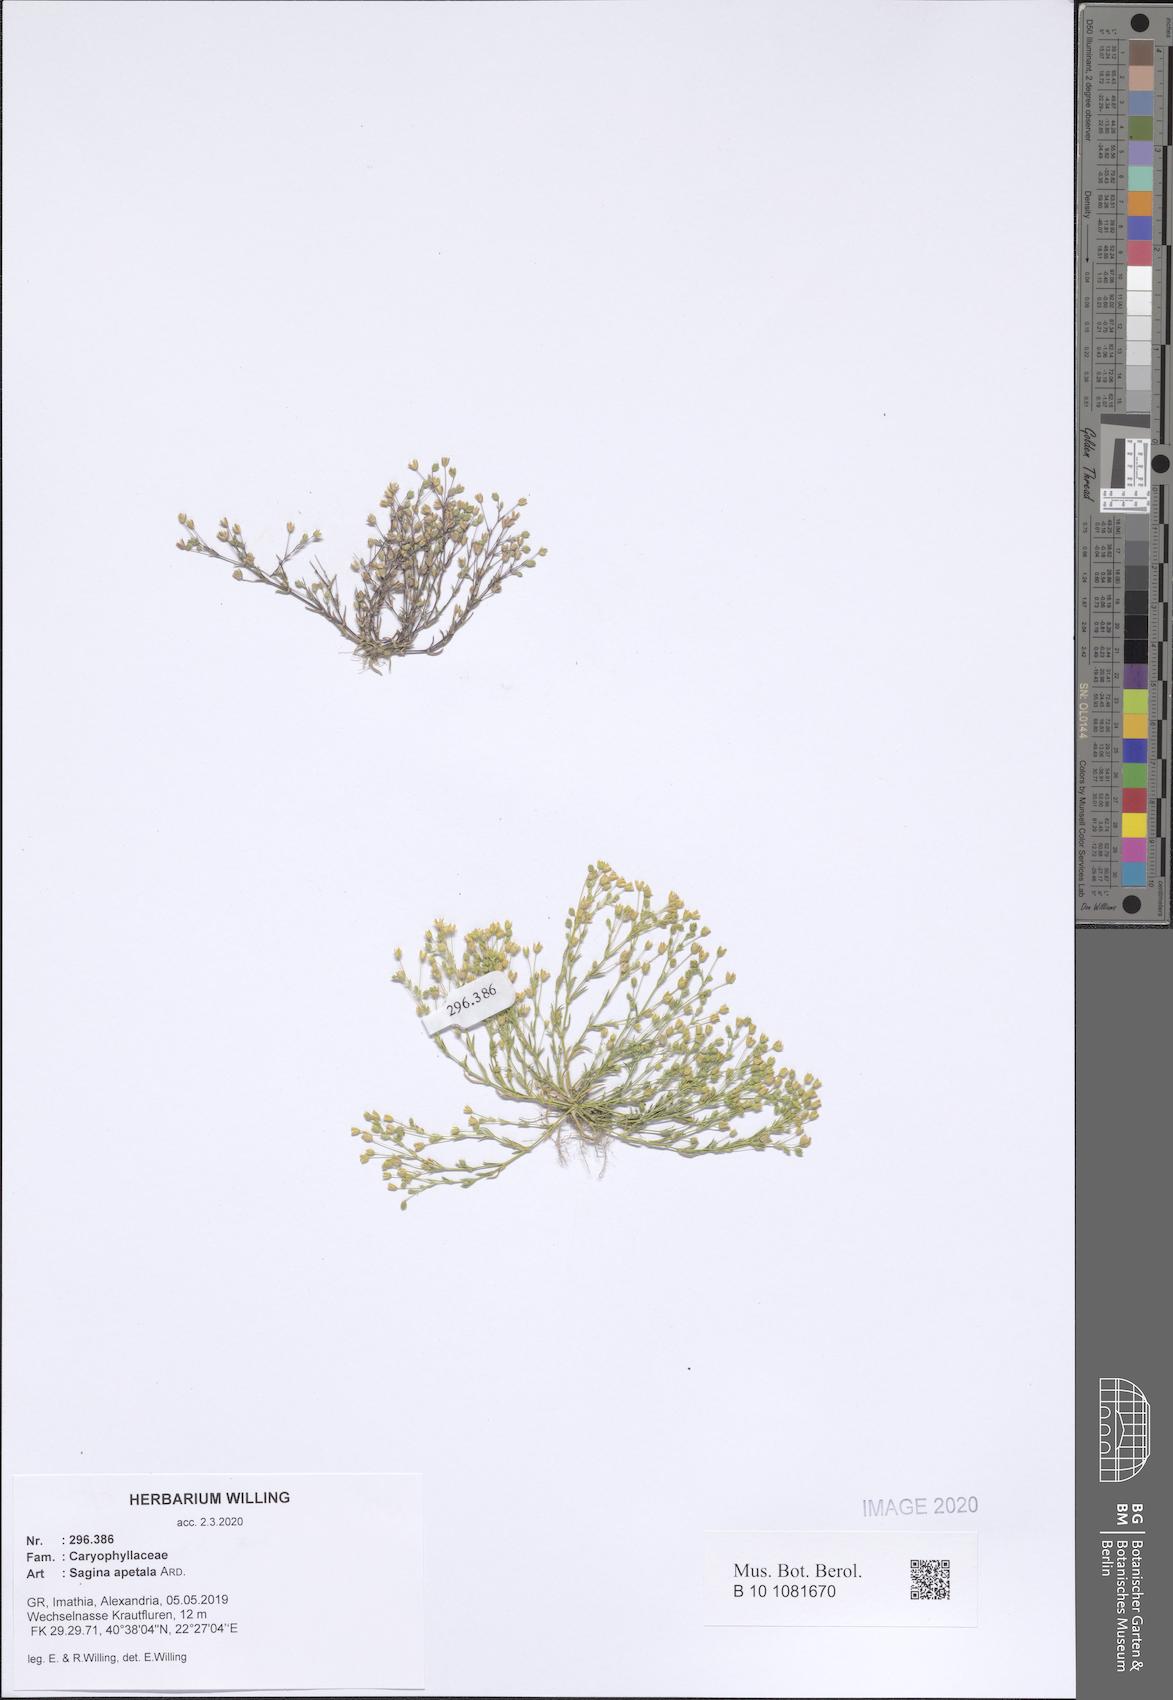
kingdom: Plantae
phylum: Tracheophyta
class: Magnoliopsida
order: Caryophyllales
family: Caryophyllaceae
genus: Sagina
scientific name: Sagina apetala
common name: Annual pearlwort
